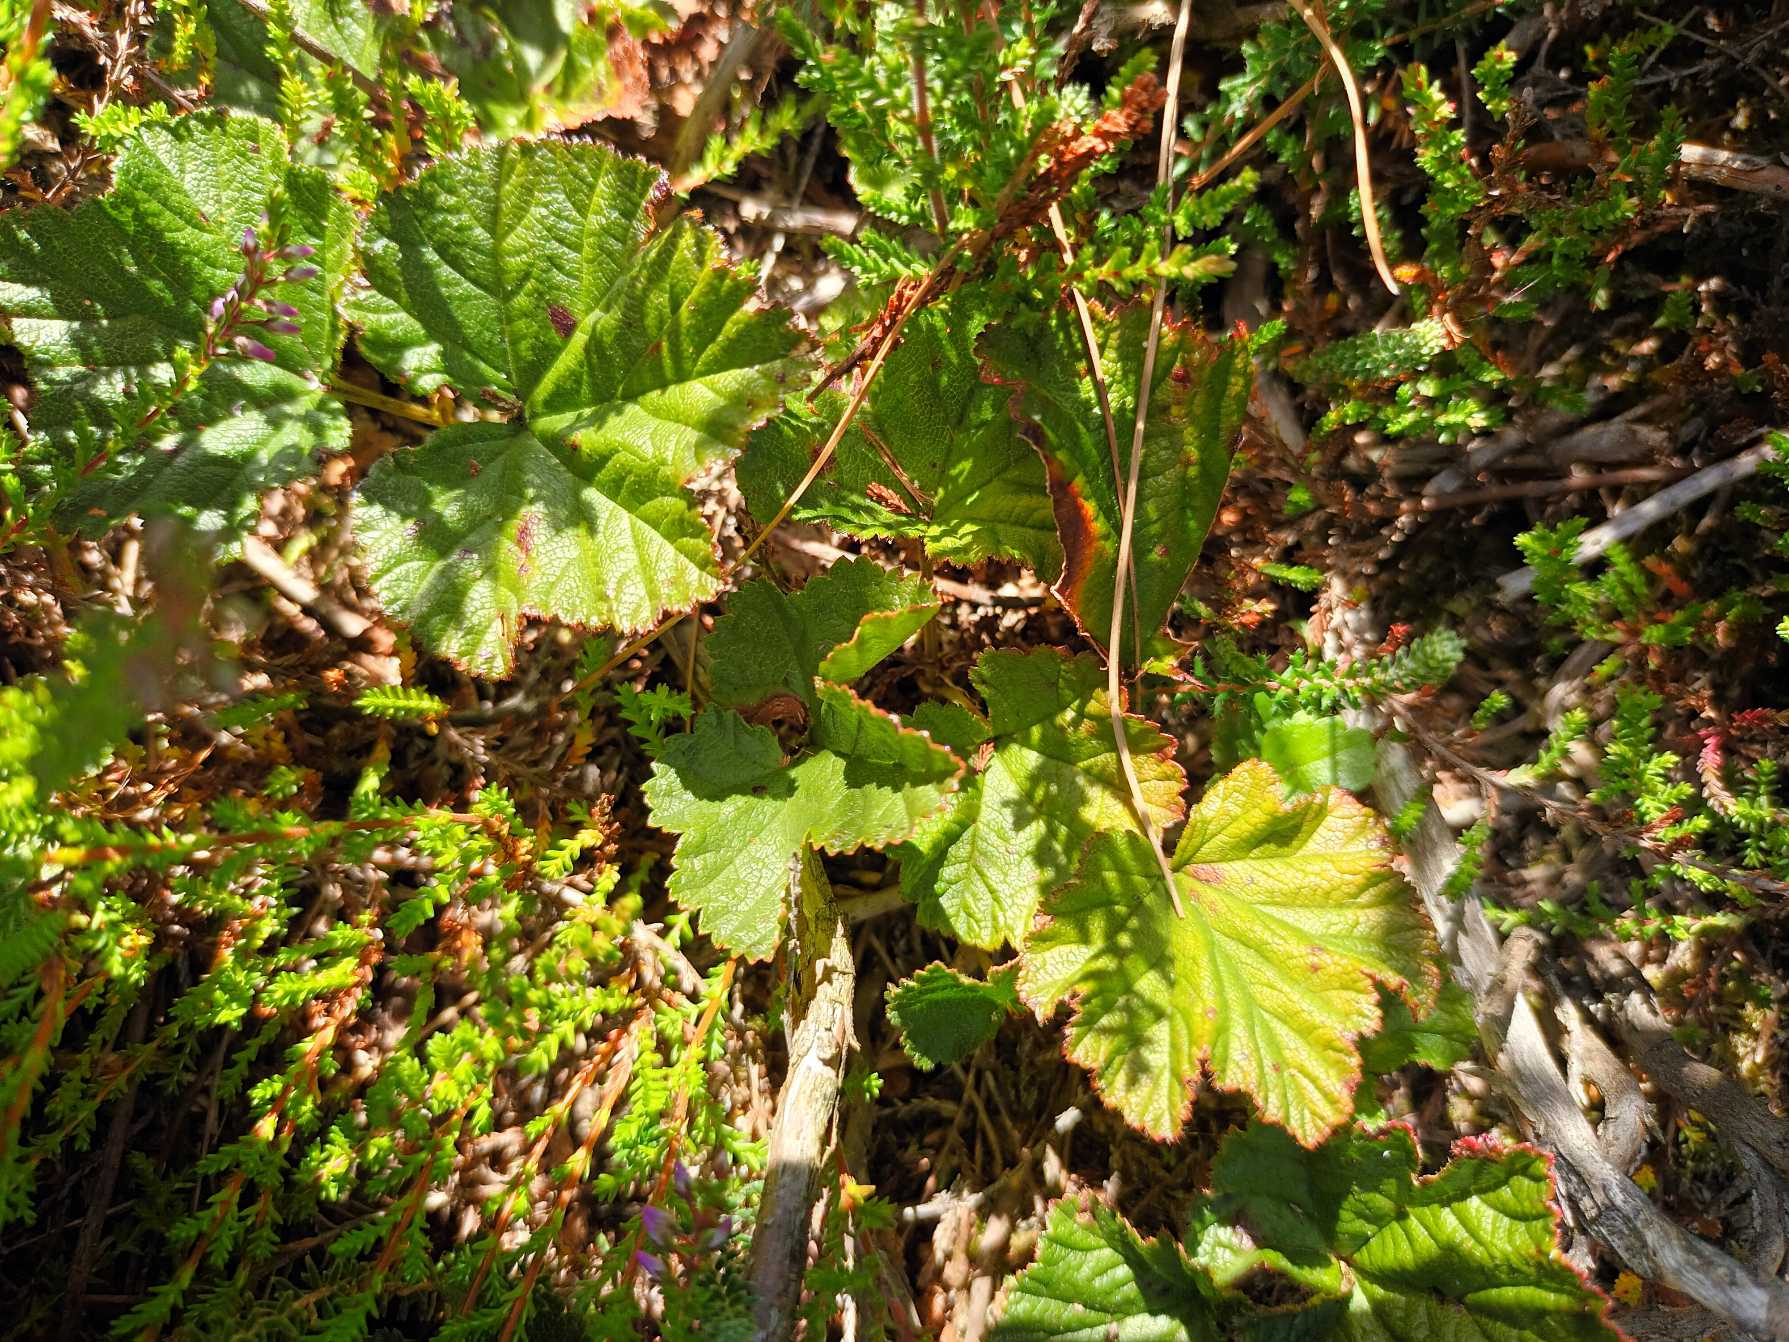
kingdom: Plantae
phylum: Tracheophyta
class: Magnoliopsida
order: Rosales
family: Rosaceae
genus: Rubus
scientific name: Rubus chamaemorus
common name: Multebær
